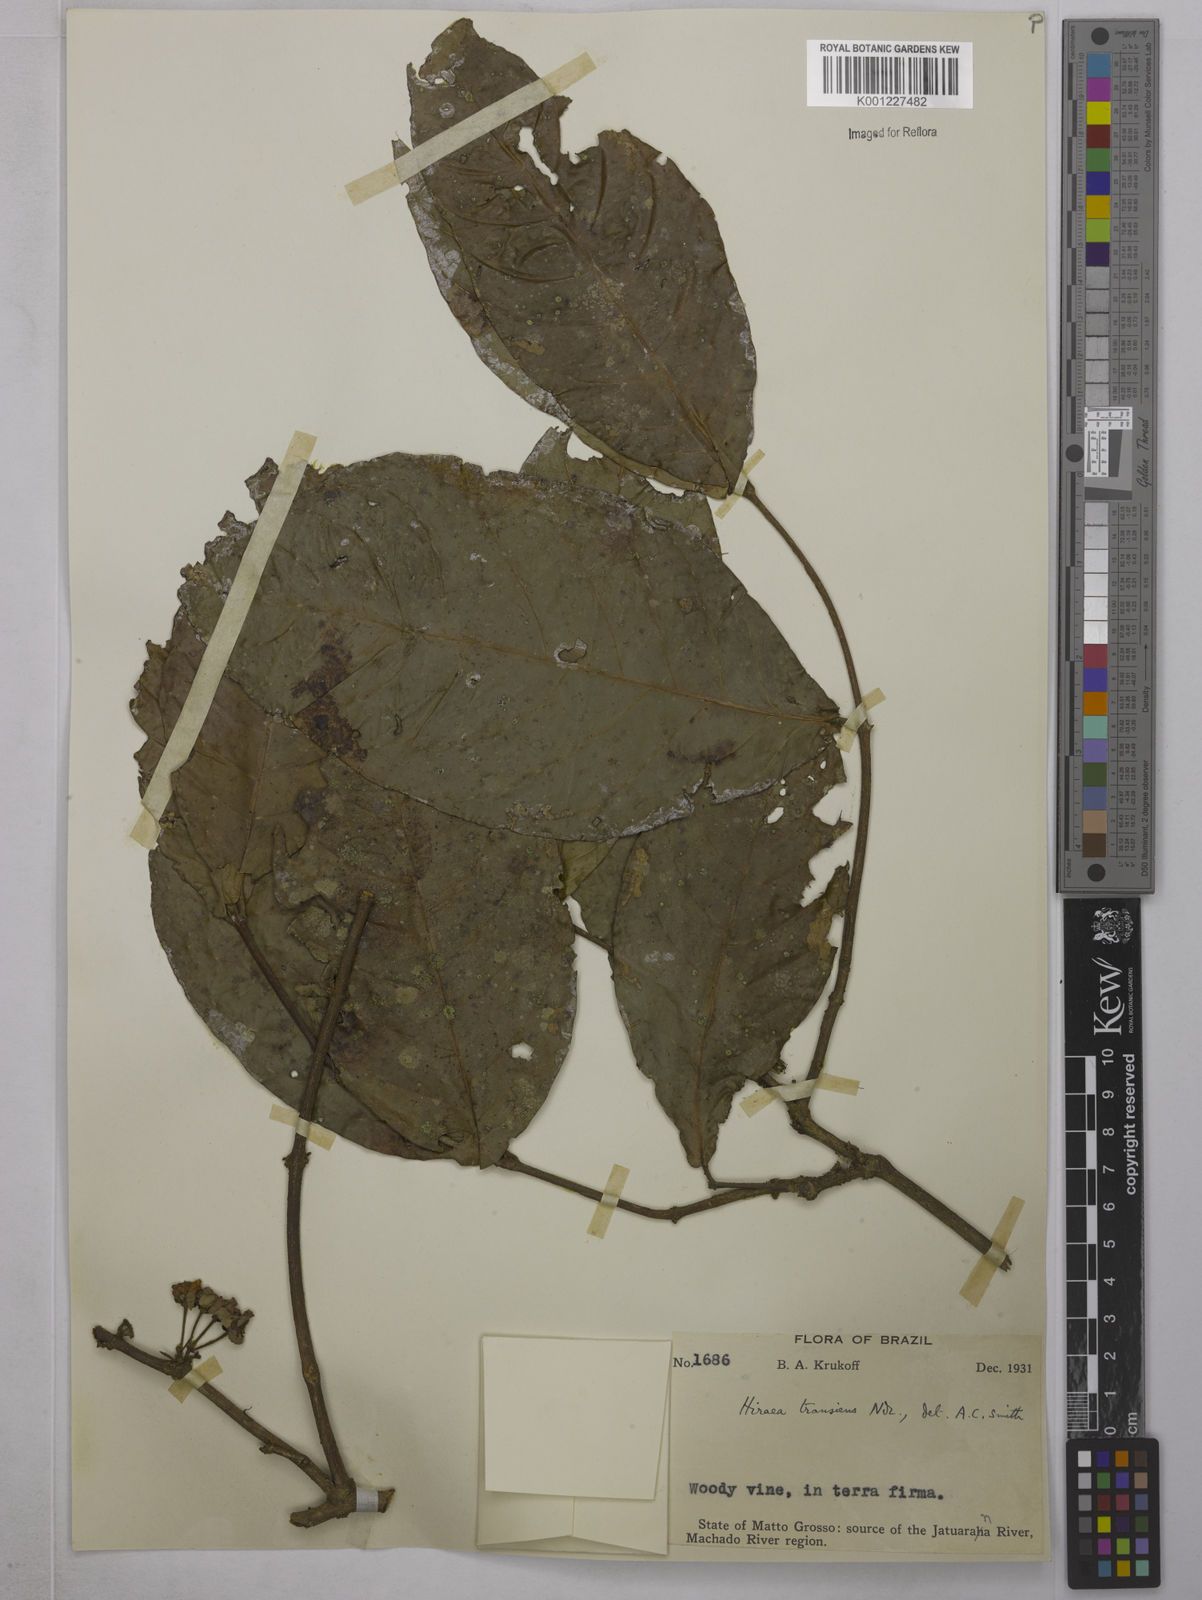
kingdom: Plantae
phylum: Tracheophyta
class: Magnoliopsida
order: Malpighiales
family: Malpighiaceae
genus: Hiraea
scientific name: Hiraea transiens
